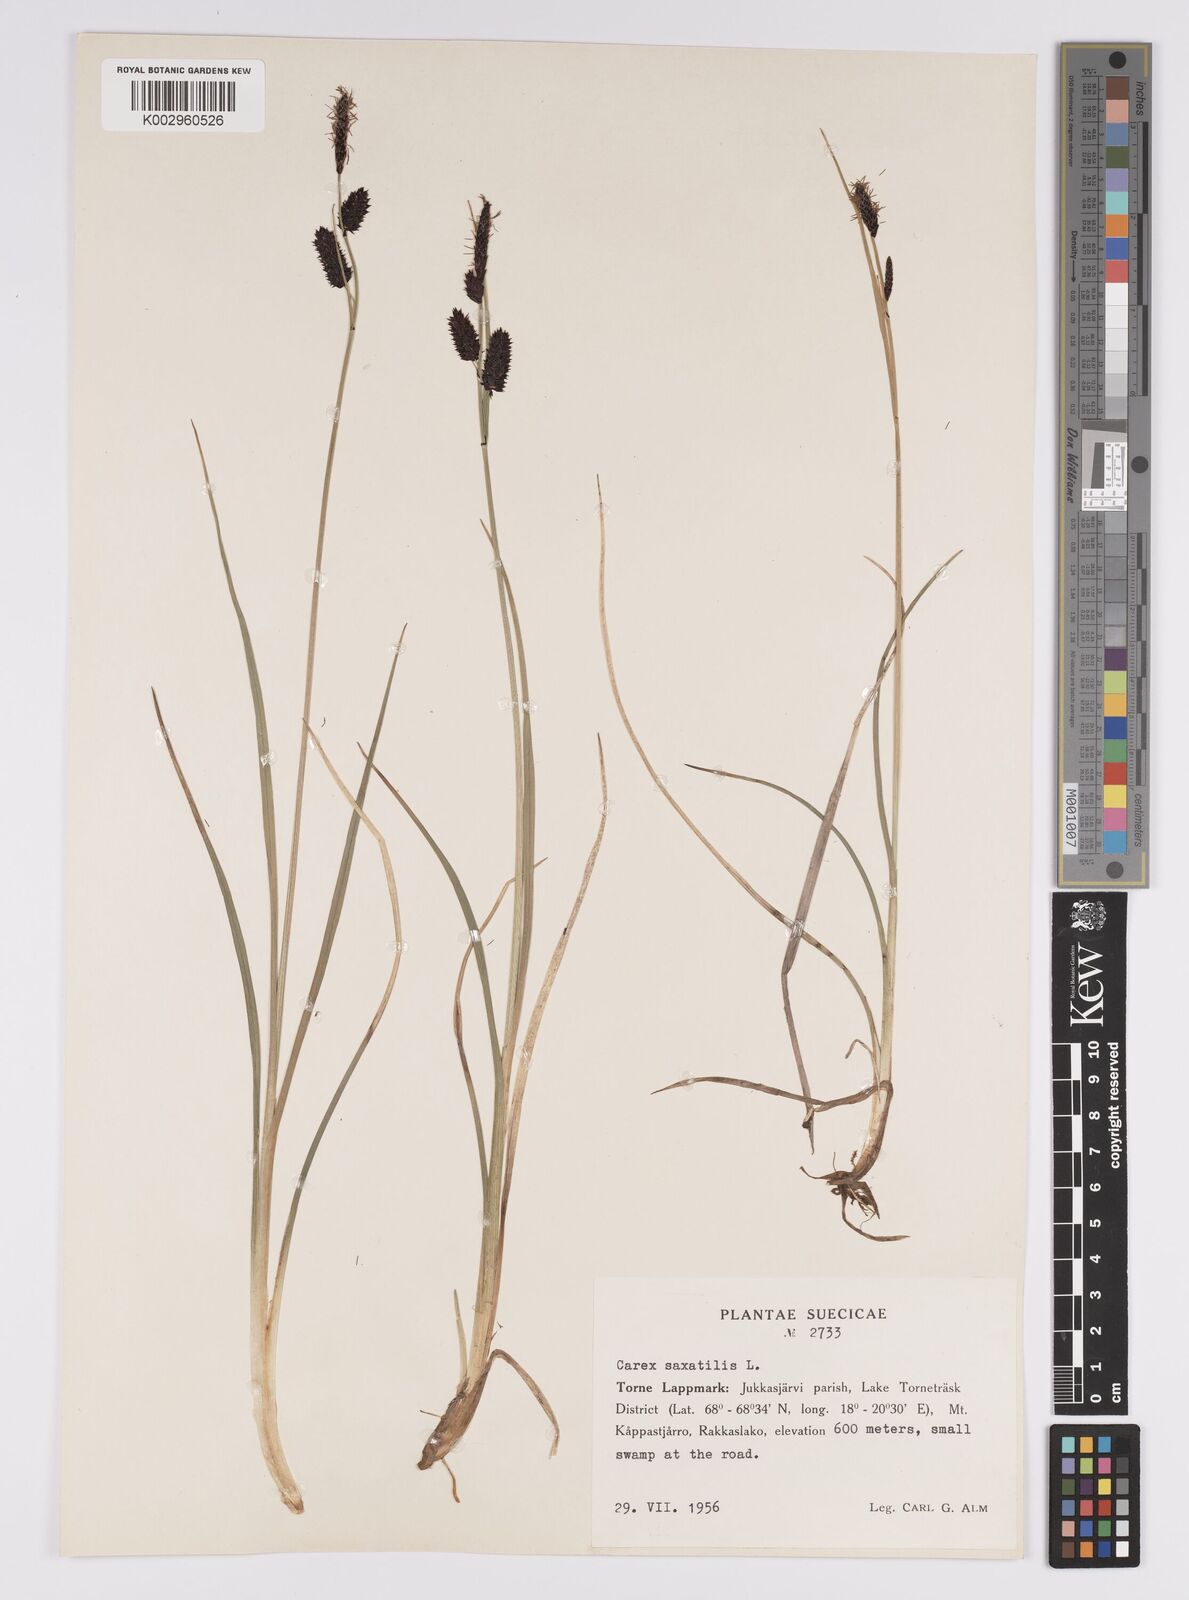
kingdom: Plantae
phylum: Tracheophyta
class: Liliopsida
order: Poales
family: Cyperaceae
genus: Carex
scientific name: Carex saxatilis
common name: Russet sedge
